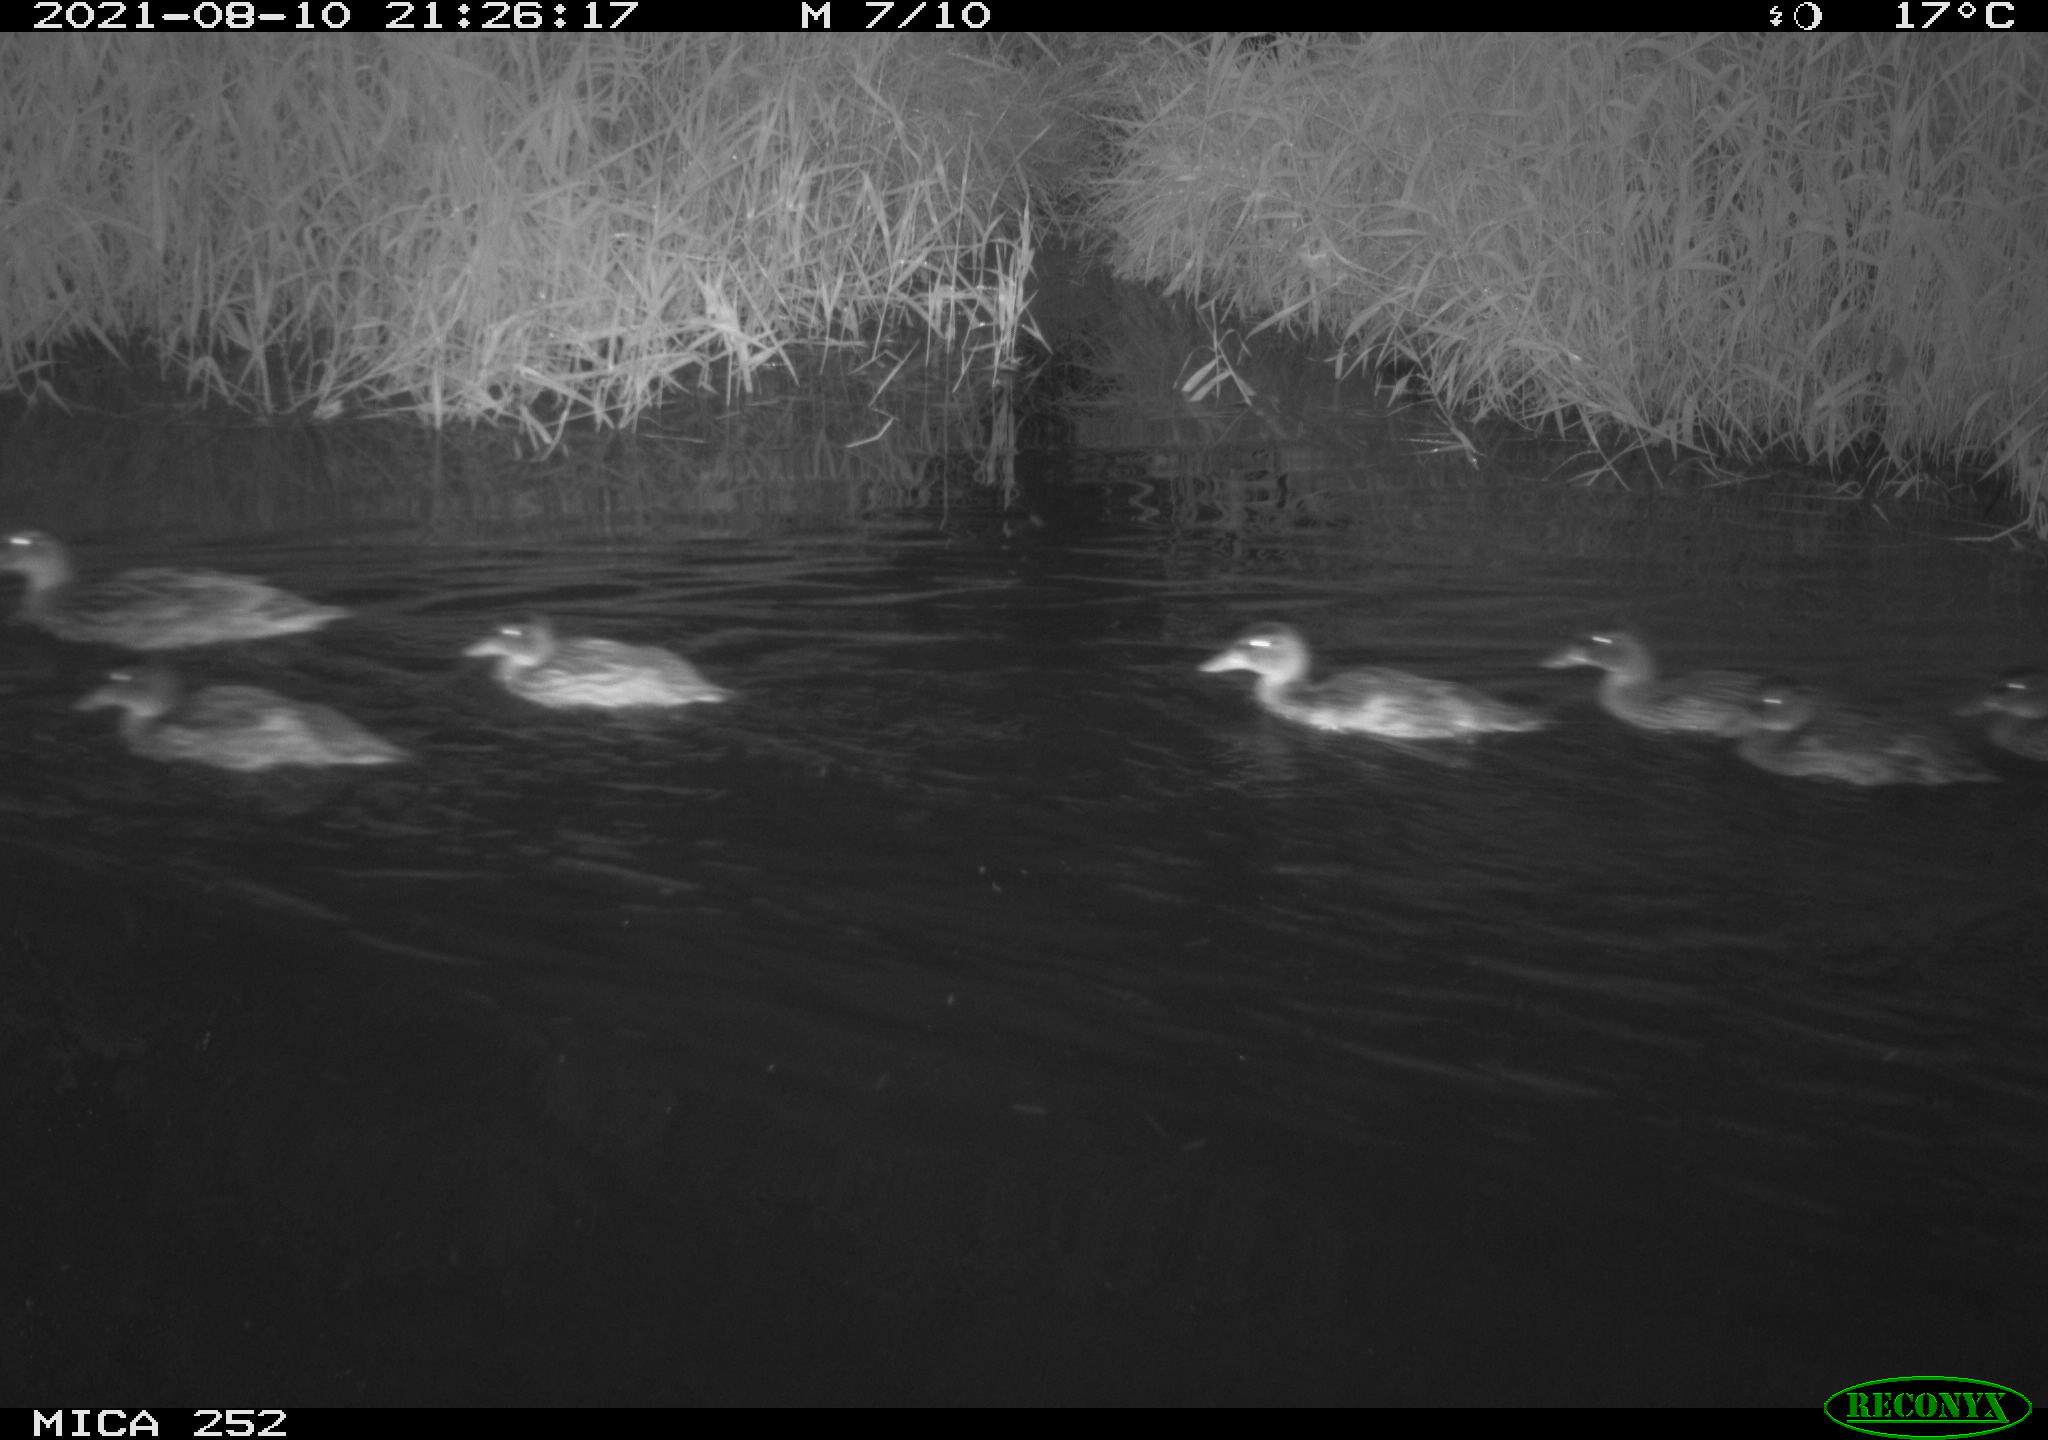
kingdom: Animalia
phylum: Chordata
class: Aves
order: Anseriformes
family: Anatidae
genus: Anas
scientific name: Anas platyrhynchos
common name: Mallard
